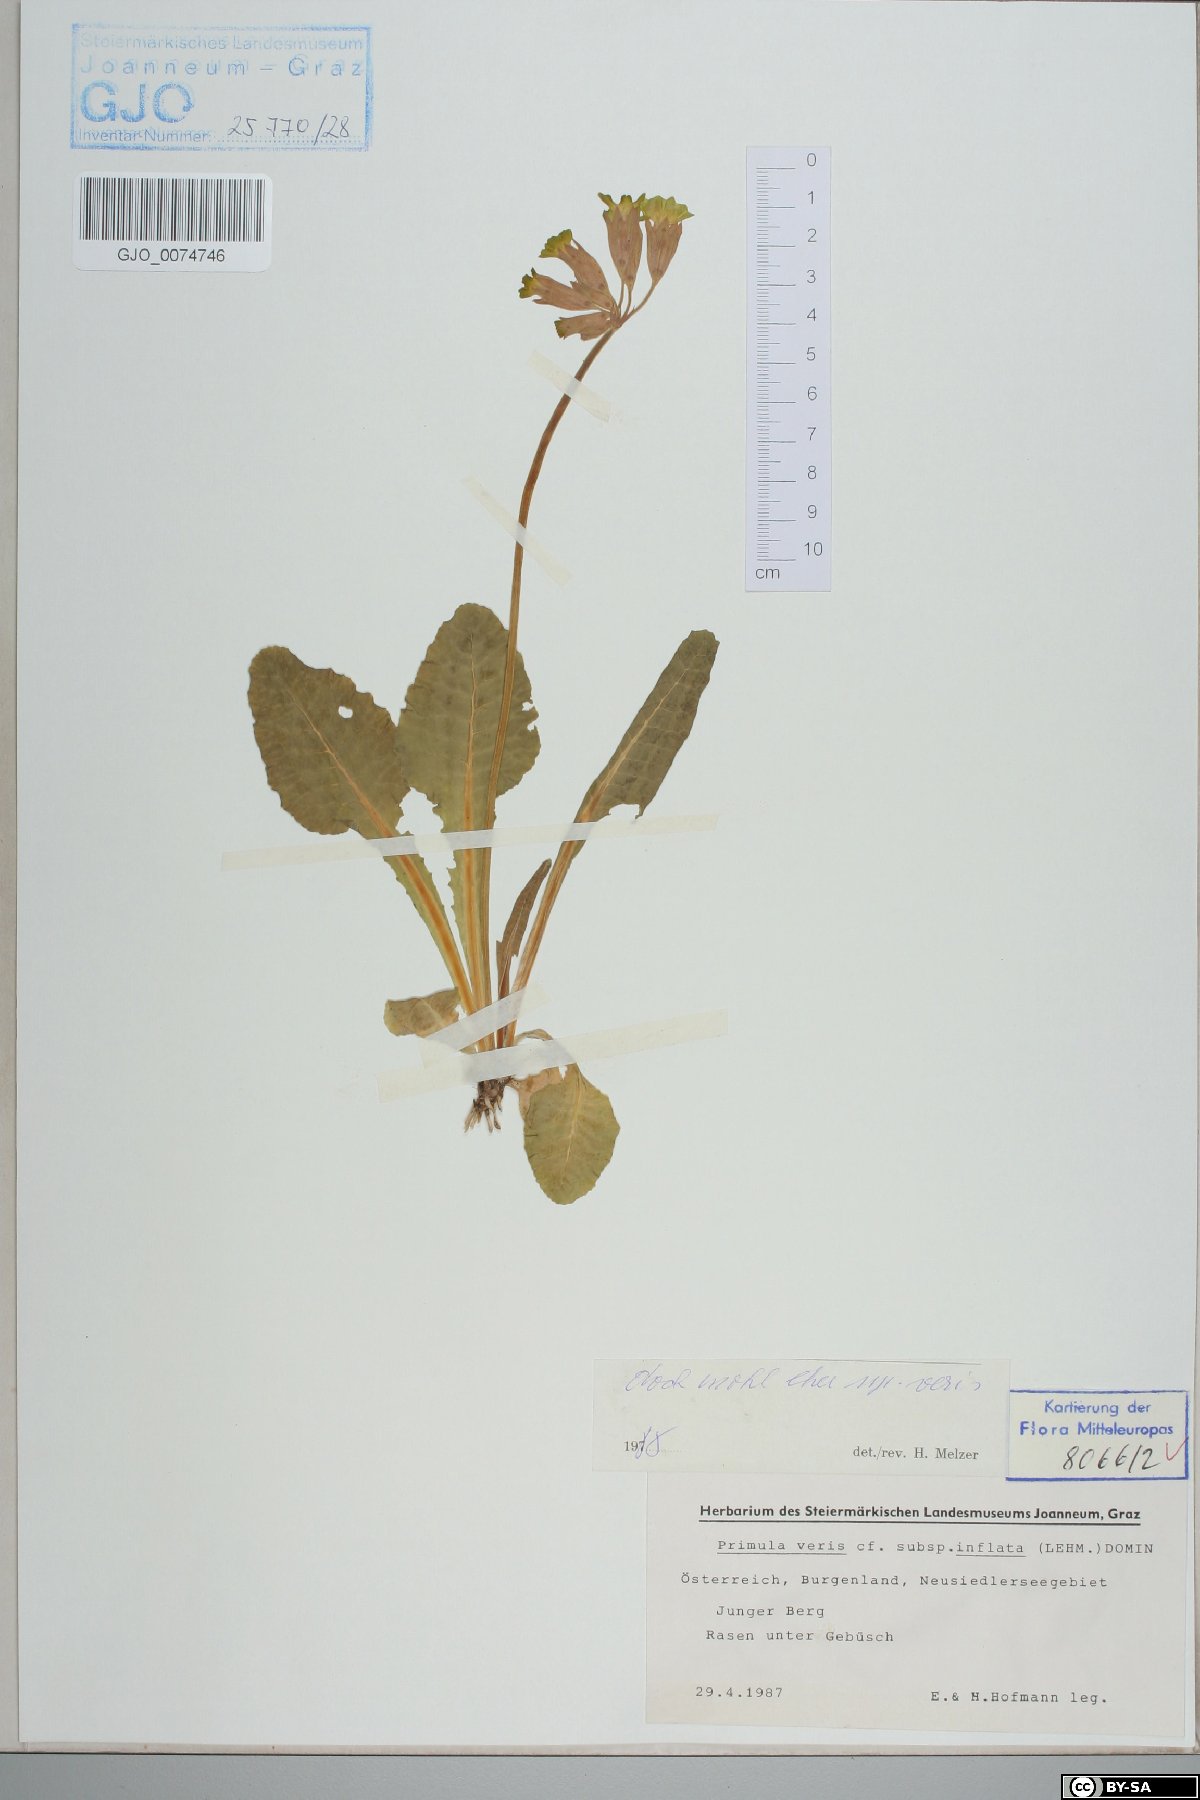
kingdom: Plantae
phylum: Tracheophyta
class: Magnoliopsida
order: Ericales
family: Primulaceae
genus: Primula
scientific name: Primula veris
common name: Cowslip
